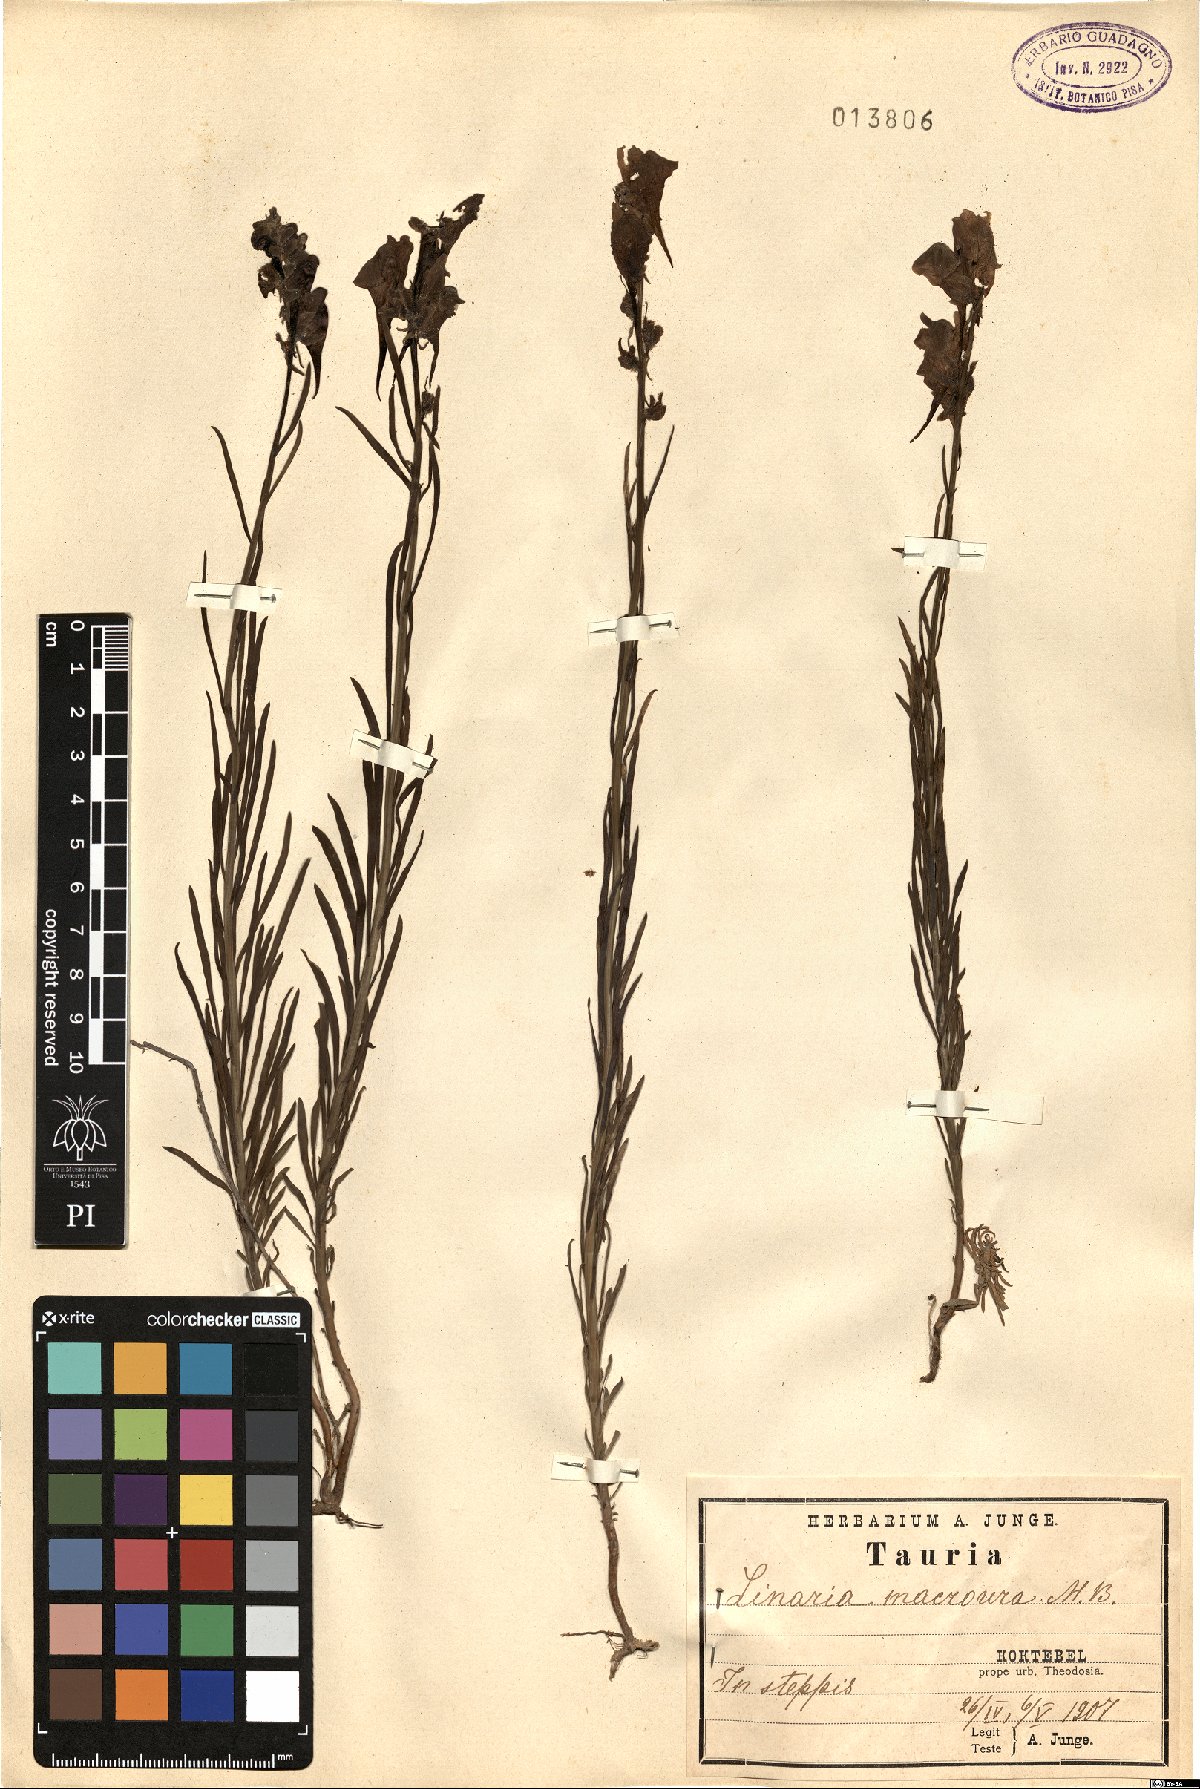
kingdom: Plantae
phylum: Tracheophyta
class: Magnoliopsida
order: Lamiales
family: Plantaginaceae
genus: Linaria
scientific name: Linaria macroura
